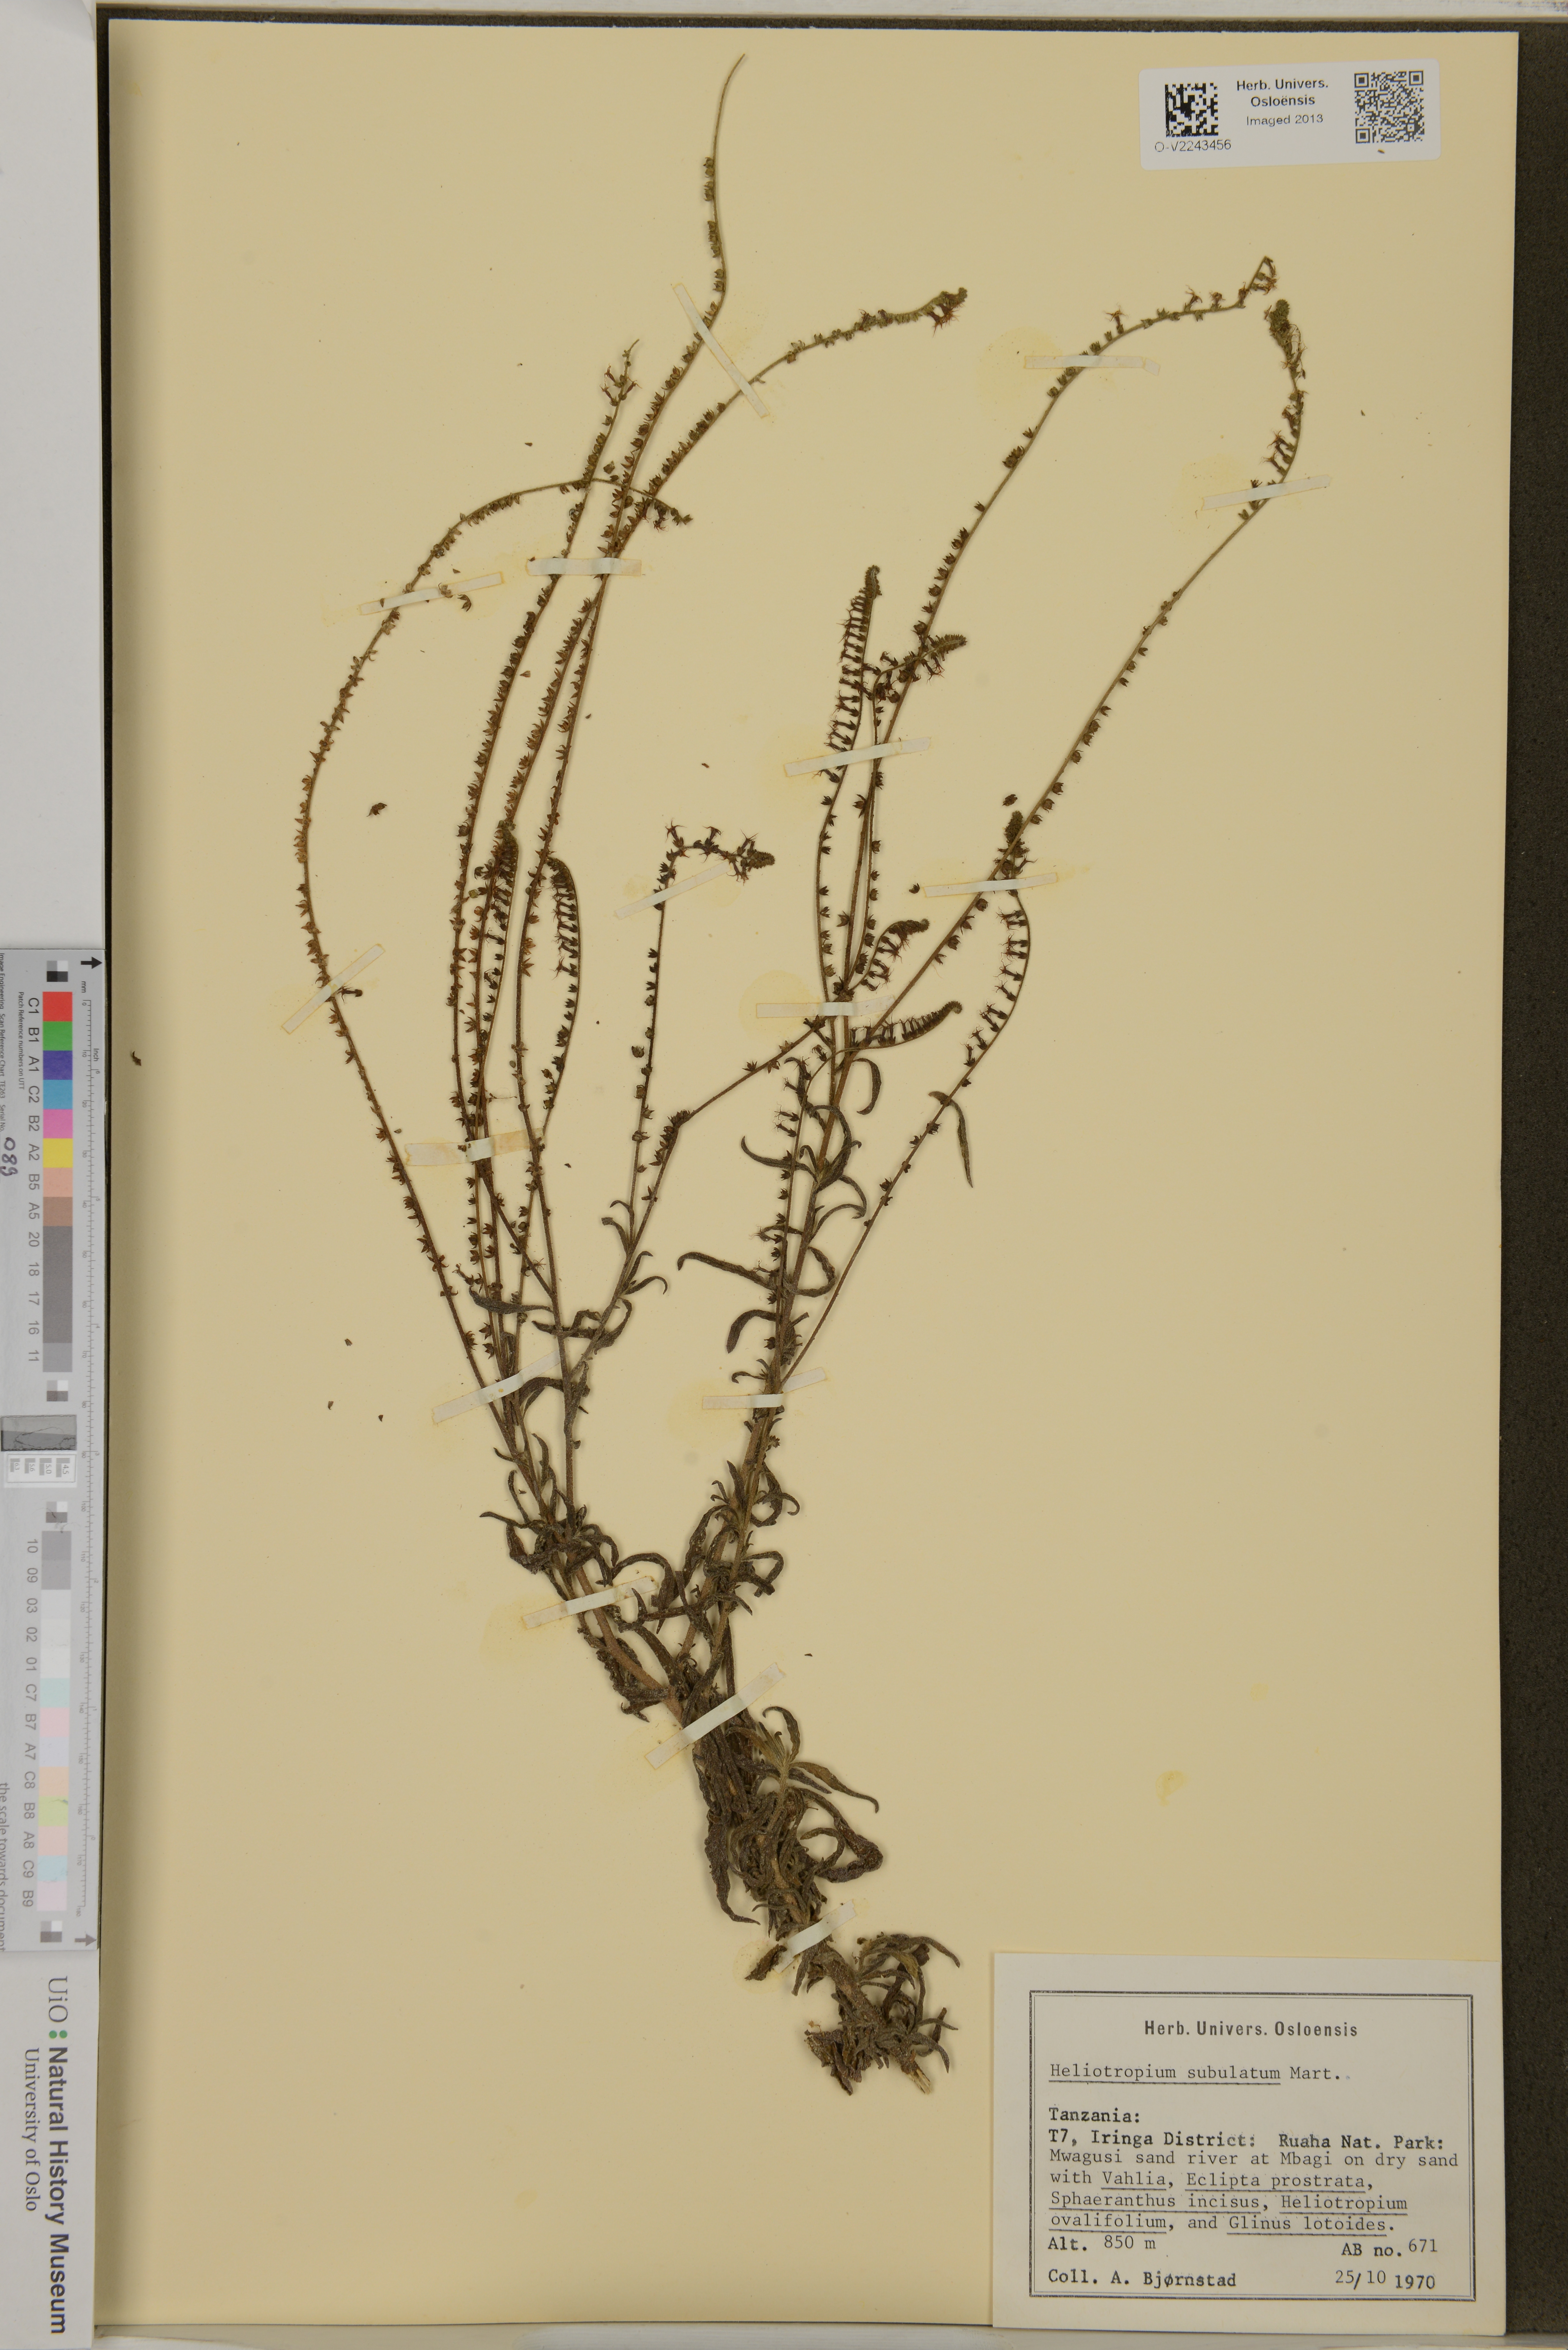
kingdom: Plantae
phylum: Tracheophyta
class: Magnoliopsida
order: Boraginales
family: Heliotropiaceae
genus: Heliotropium
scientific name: Heliotropium subulatum
